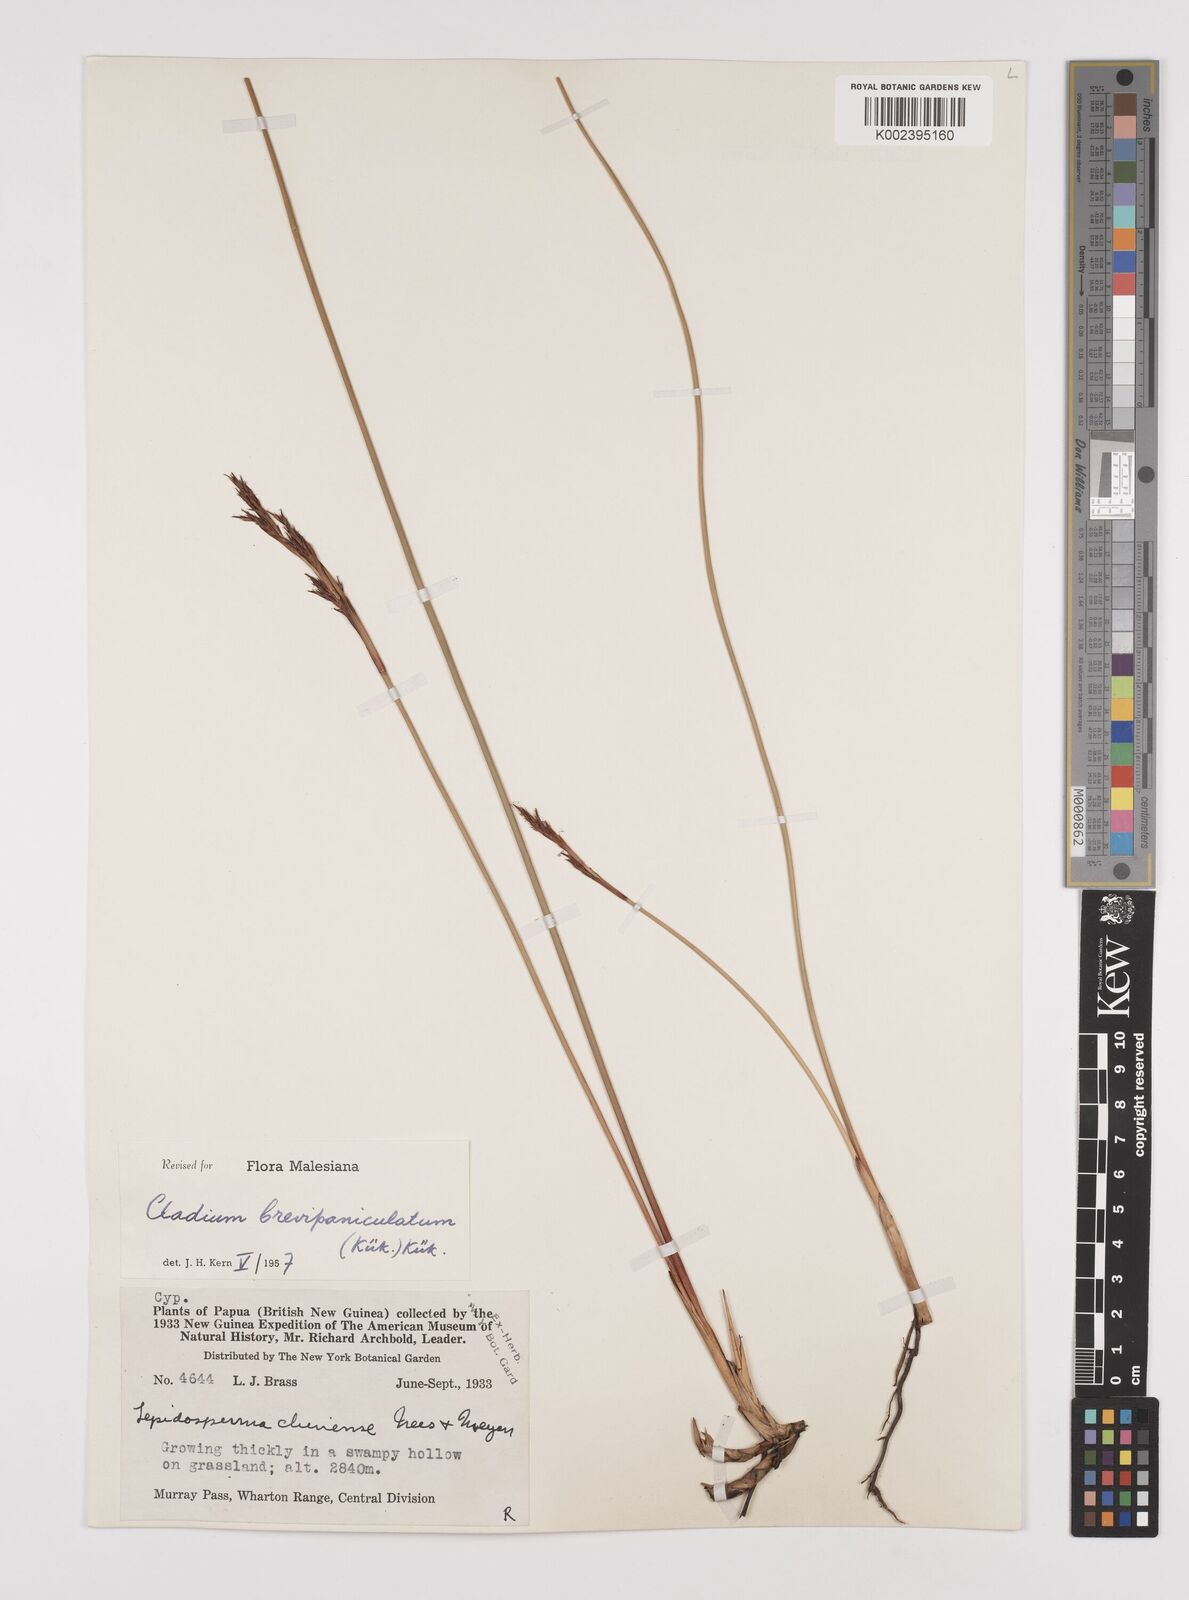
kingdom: Plantae
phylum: Tracheophyta
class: Liliopsida
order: Poales
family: Cyperaceae
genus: Machaerina
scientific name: Machaerina gunnii
